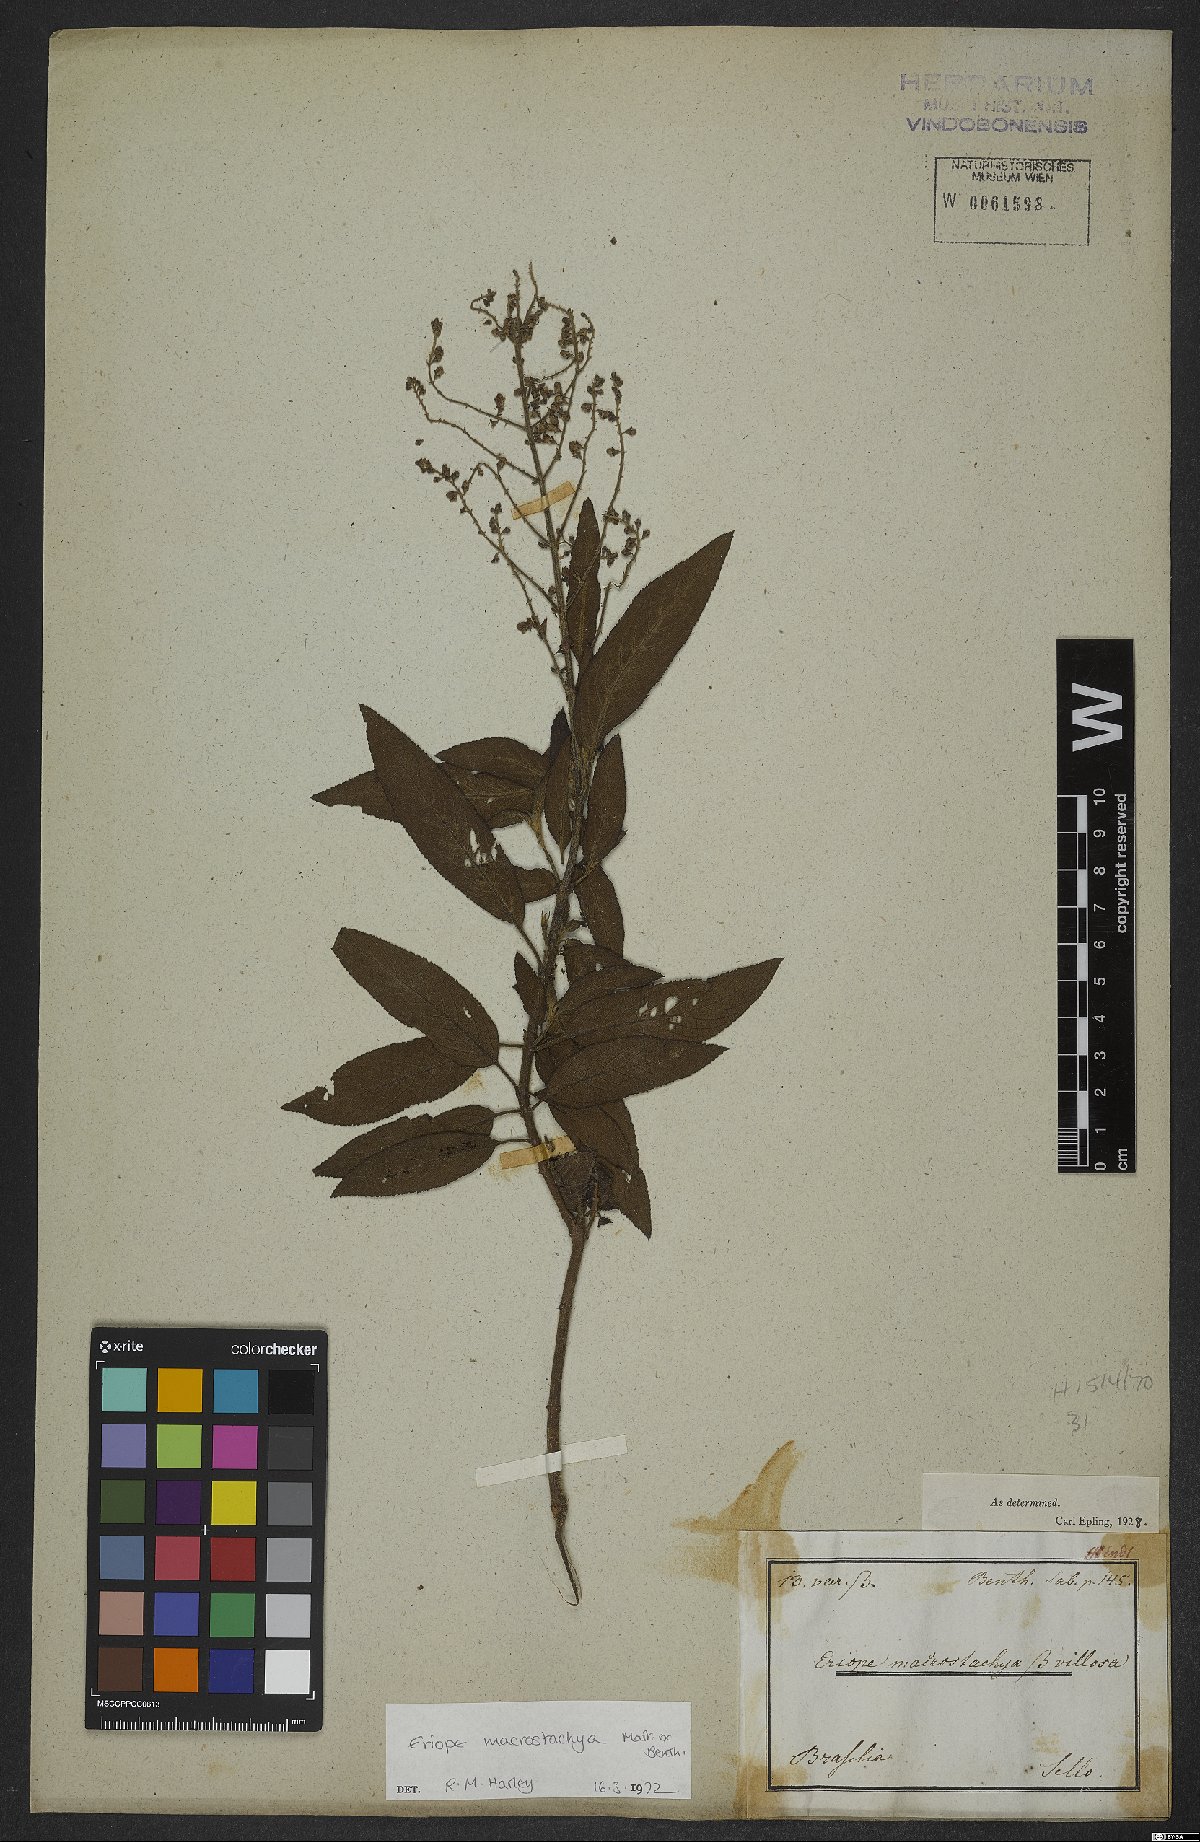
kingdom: Plantae
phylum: Tracheophyta
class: Magnoliopsida
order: Lamiales
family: Lamiaceae
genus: Eriope
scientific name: Eriope macrostachya
